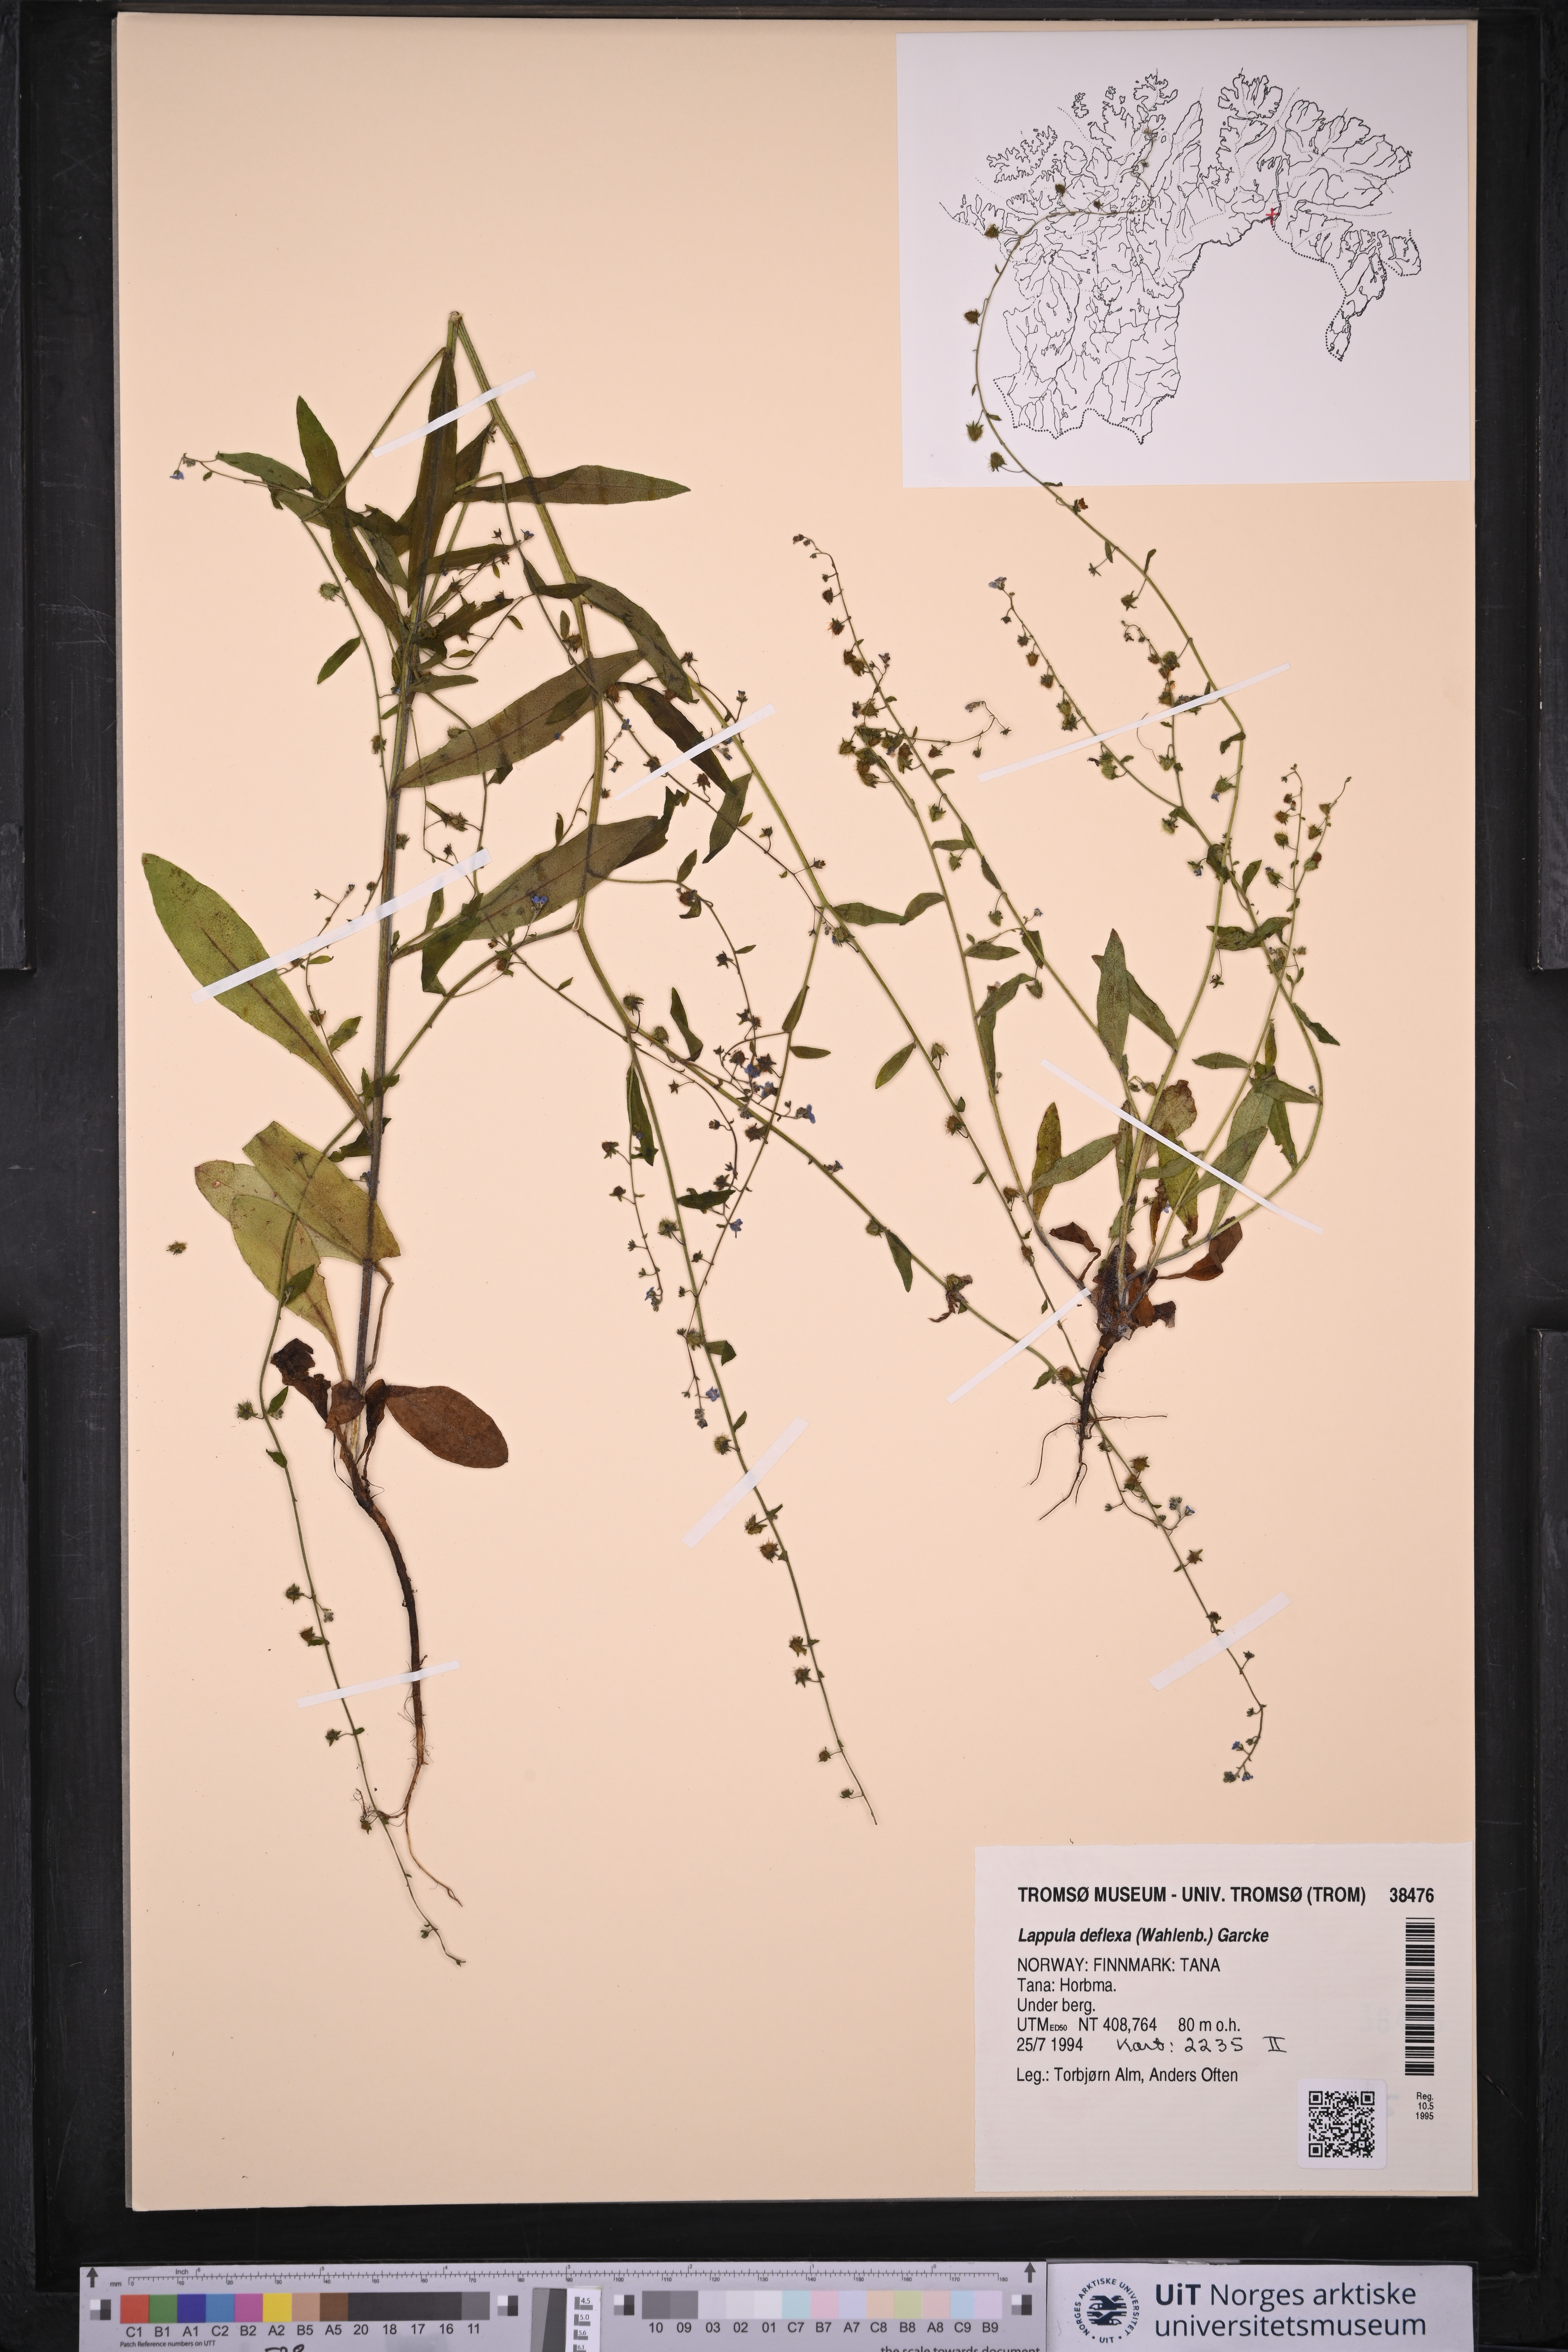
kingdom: Plantae
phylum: Tracheophyta
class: Magnoliopsida
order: Boraginales
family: Boraginaceae
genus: Hackelia
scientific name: Hackelia deflexa
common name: Nodding stickseed
